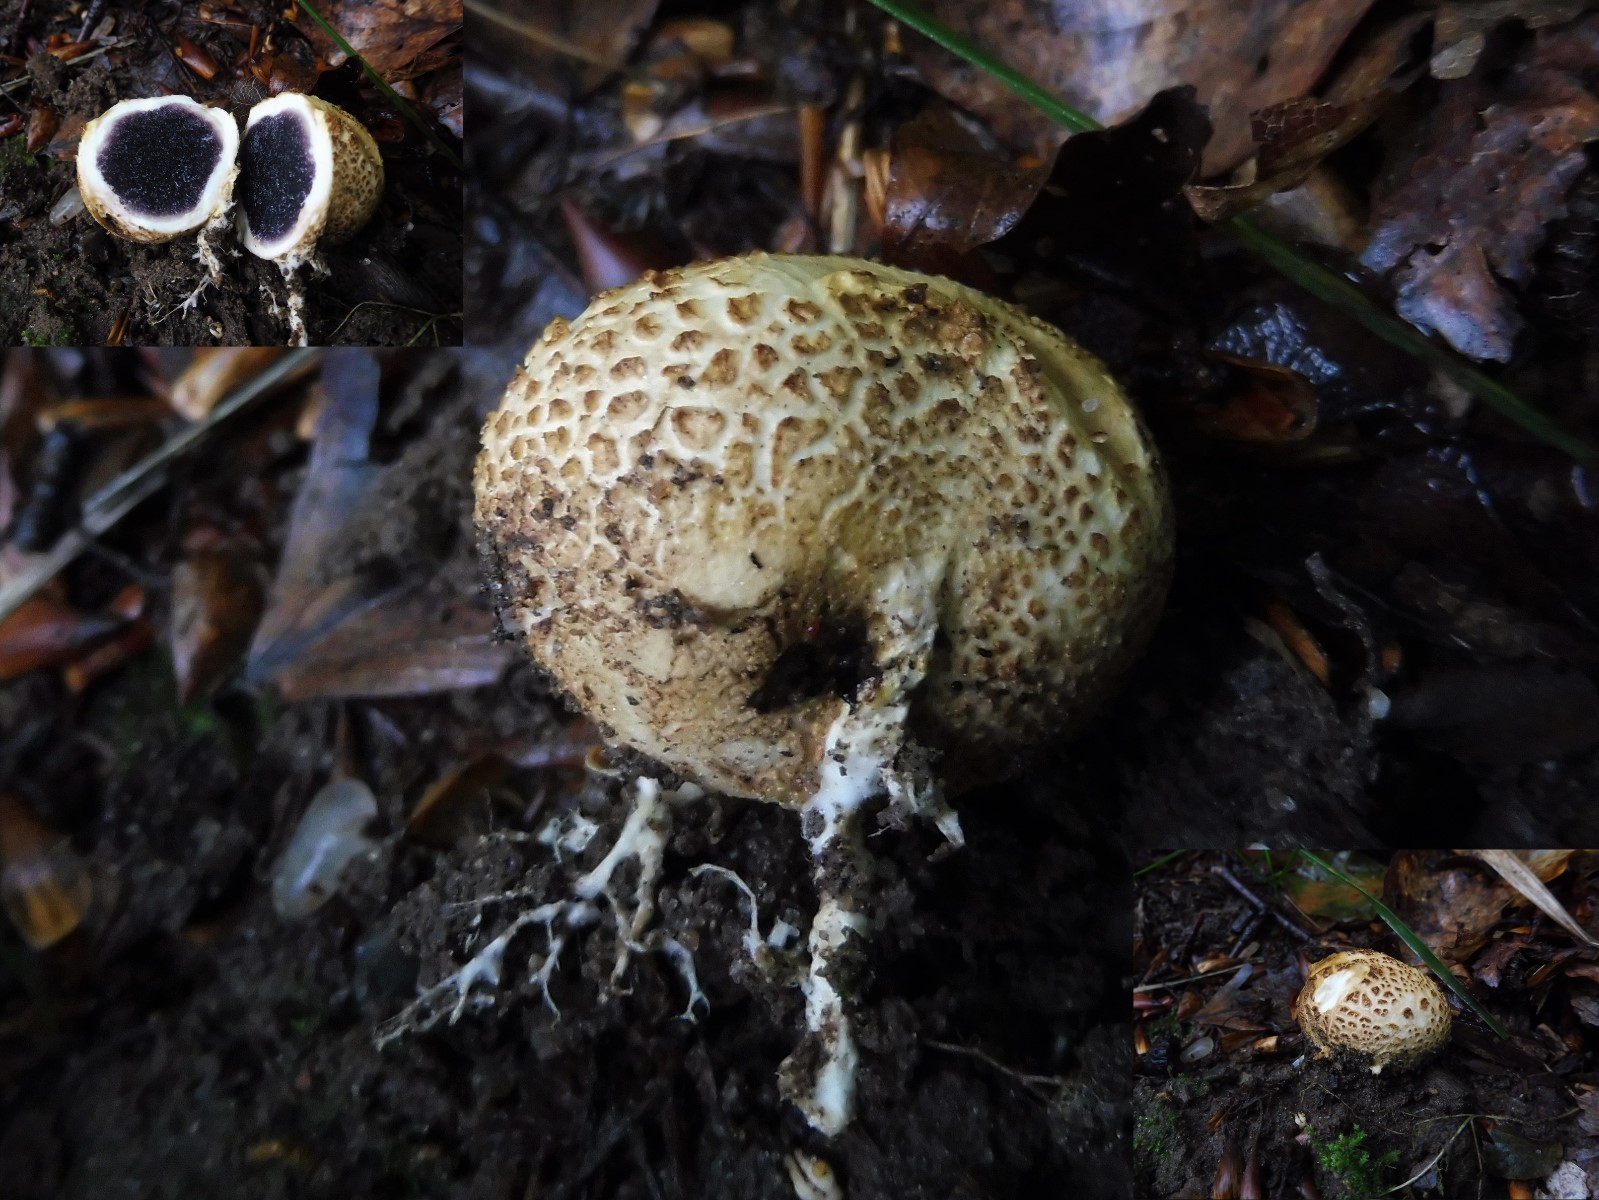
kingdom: Fungi
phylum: Basidiomycota
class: Agaricomycetes
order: Boletales
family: Sclerodermataceae
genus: Scleroderma
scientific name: Scleroderma citrinum
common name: almindelig bruskbold
